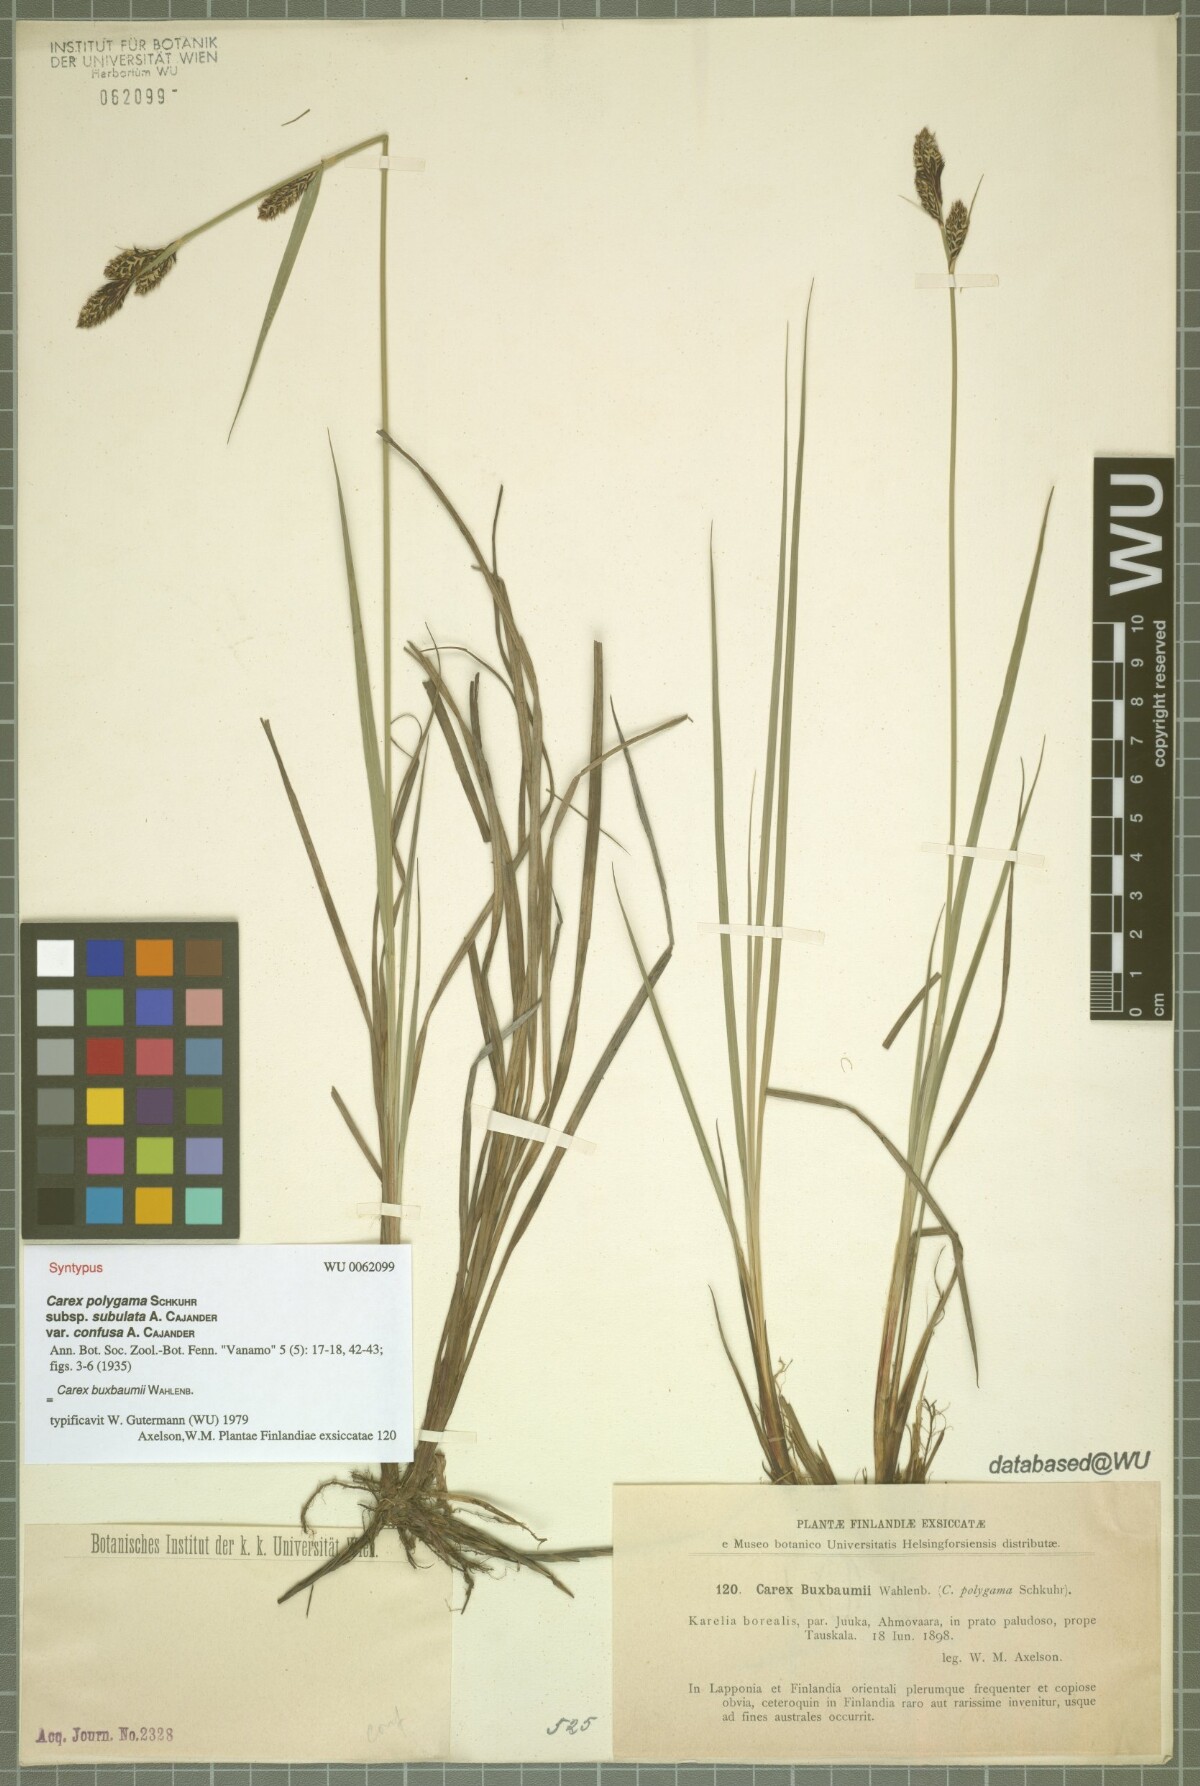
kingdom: Plantae
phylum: Tracheophyta
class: Liliopsida
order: Poales
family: Cyperaceae
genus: Carex
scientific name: Carex buxbaumii
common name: Club sedge
